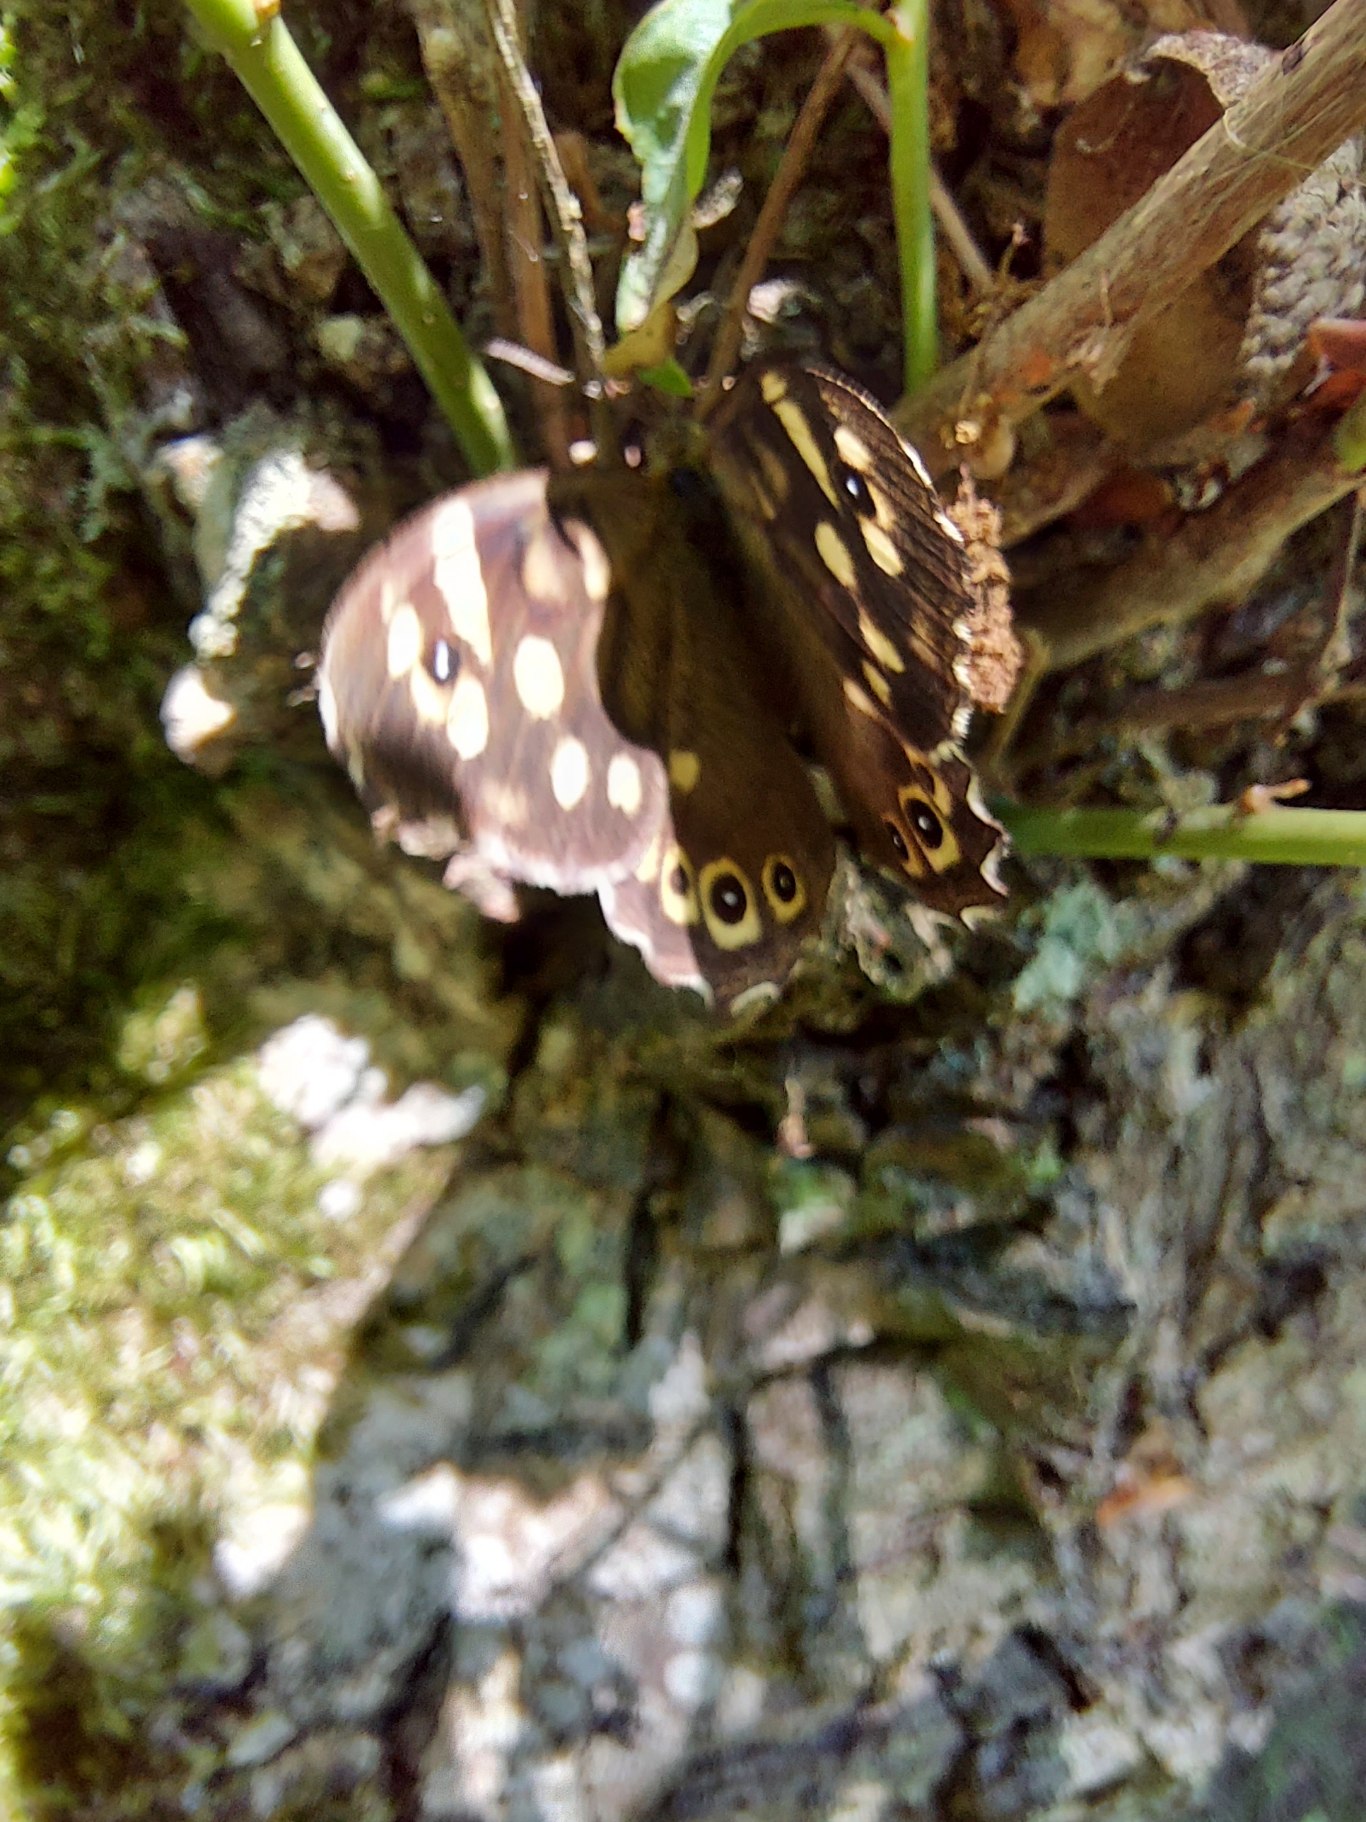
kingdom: Animalia
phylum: Arthropoda
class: Insecta
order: Lepidoptera
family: Nymphalidae
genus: Pararge
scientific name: Pararge aegeria
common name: Skovrandøje
